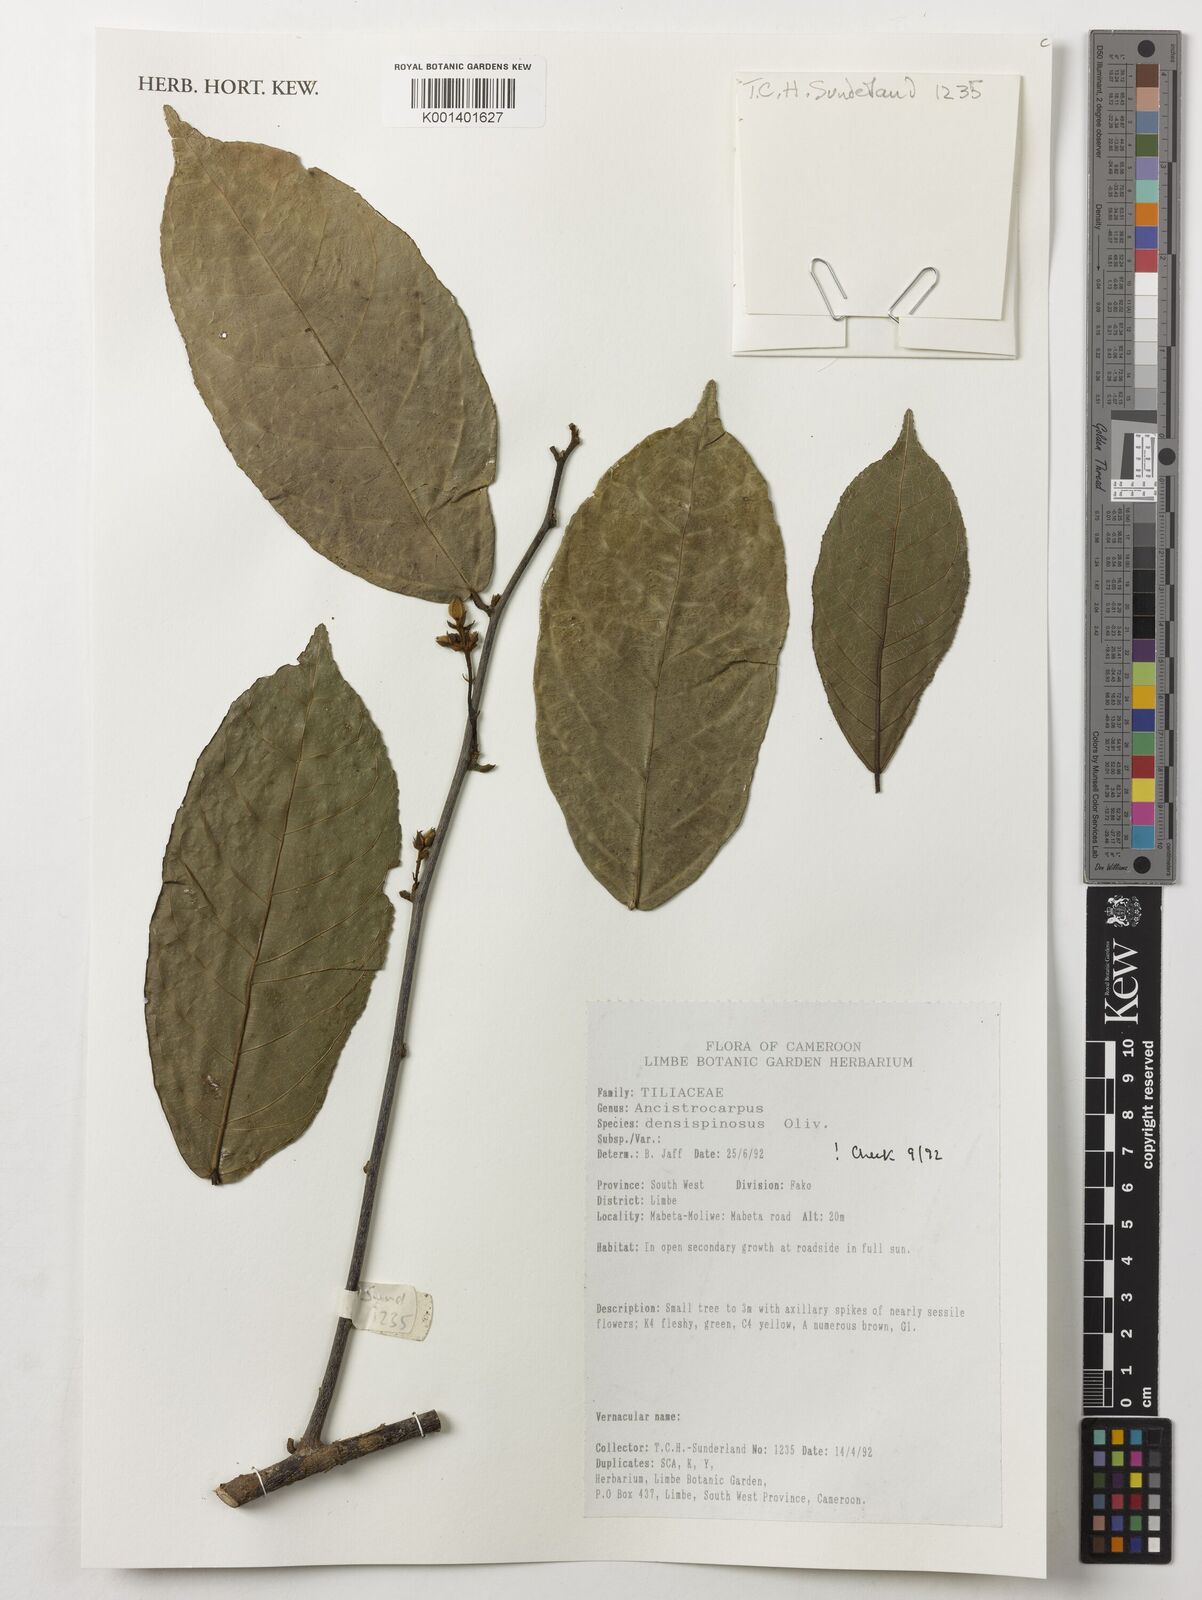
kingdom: Plantae
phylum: Tracheophyta
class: Magnoliopsida
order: Malvales
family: Malvaceae
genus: Ancistrocarpus
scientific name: Ancistrocarpus densispinosus
